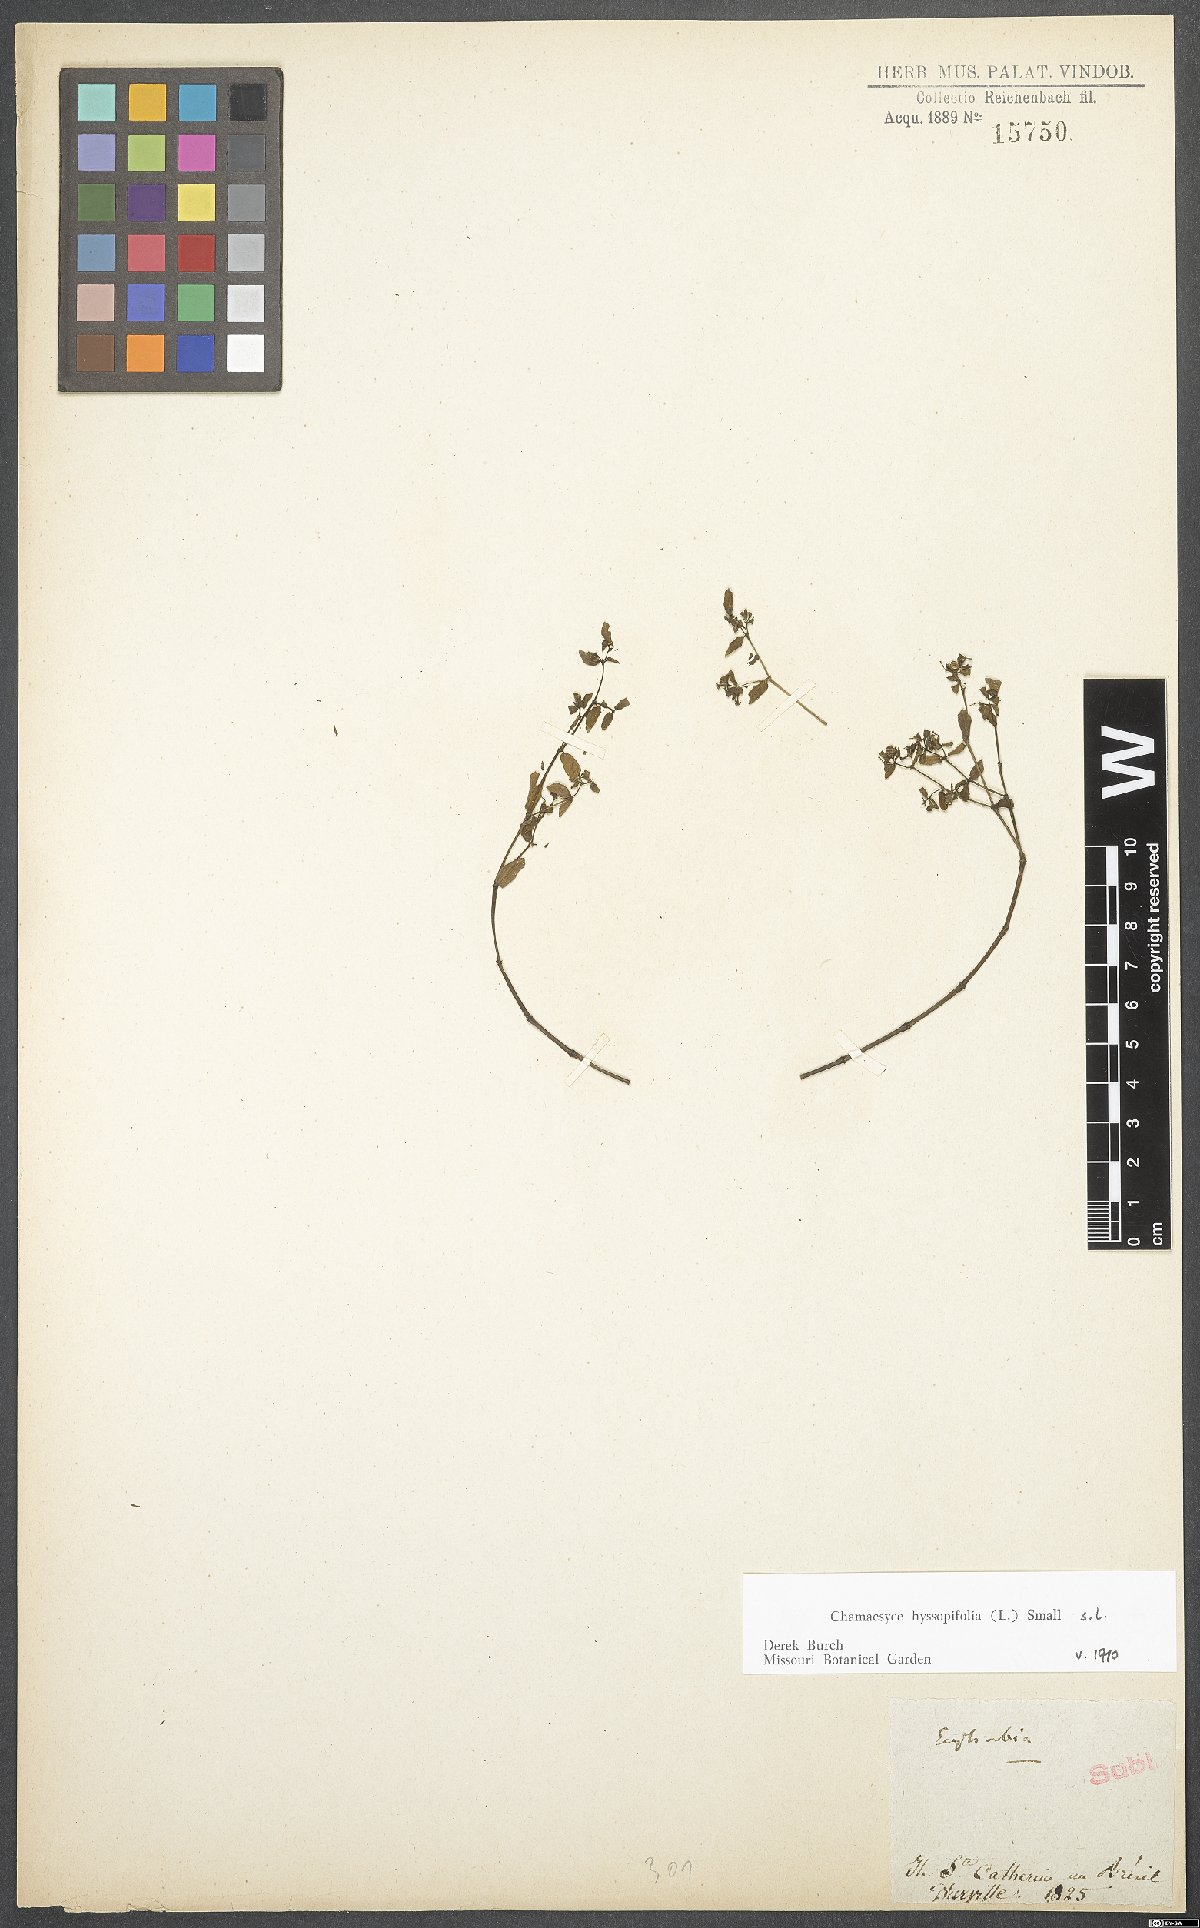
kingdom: Plantae
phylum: Tracheophyta
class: Magnoliopsida
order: Malpighiales
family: Euphorbiaceae
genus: Euphorbia
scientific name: Euphorbia hyssopifolia
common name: Hyssopleaf sandmat
